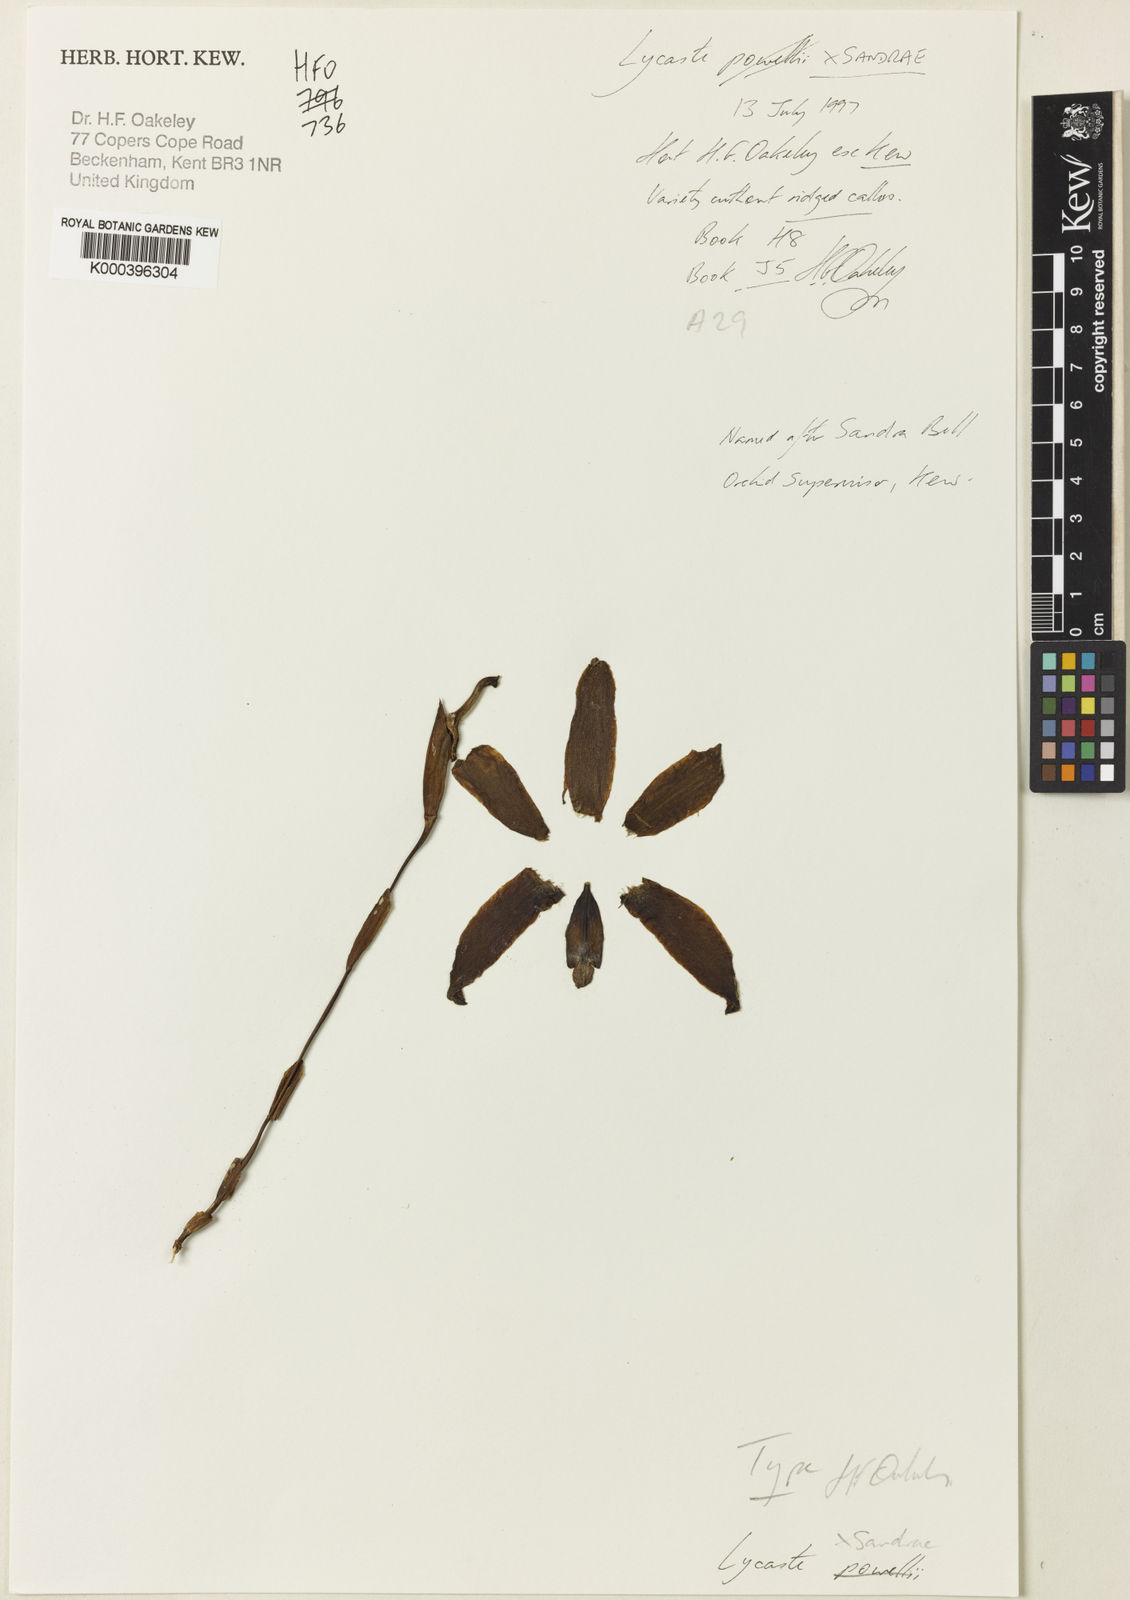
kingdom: Plantae
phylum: Tracheophyta
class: Liliopsida
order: Asparagales
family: Orchidaceae
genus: Lycaste
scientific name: Lycaste sandrae
